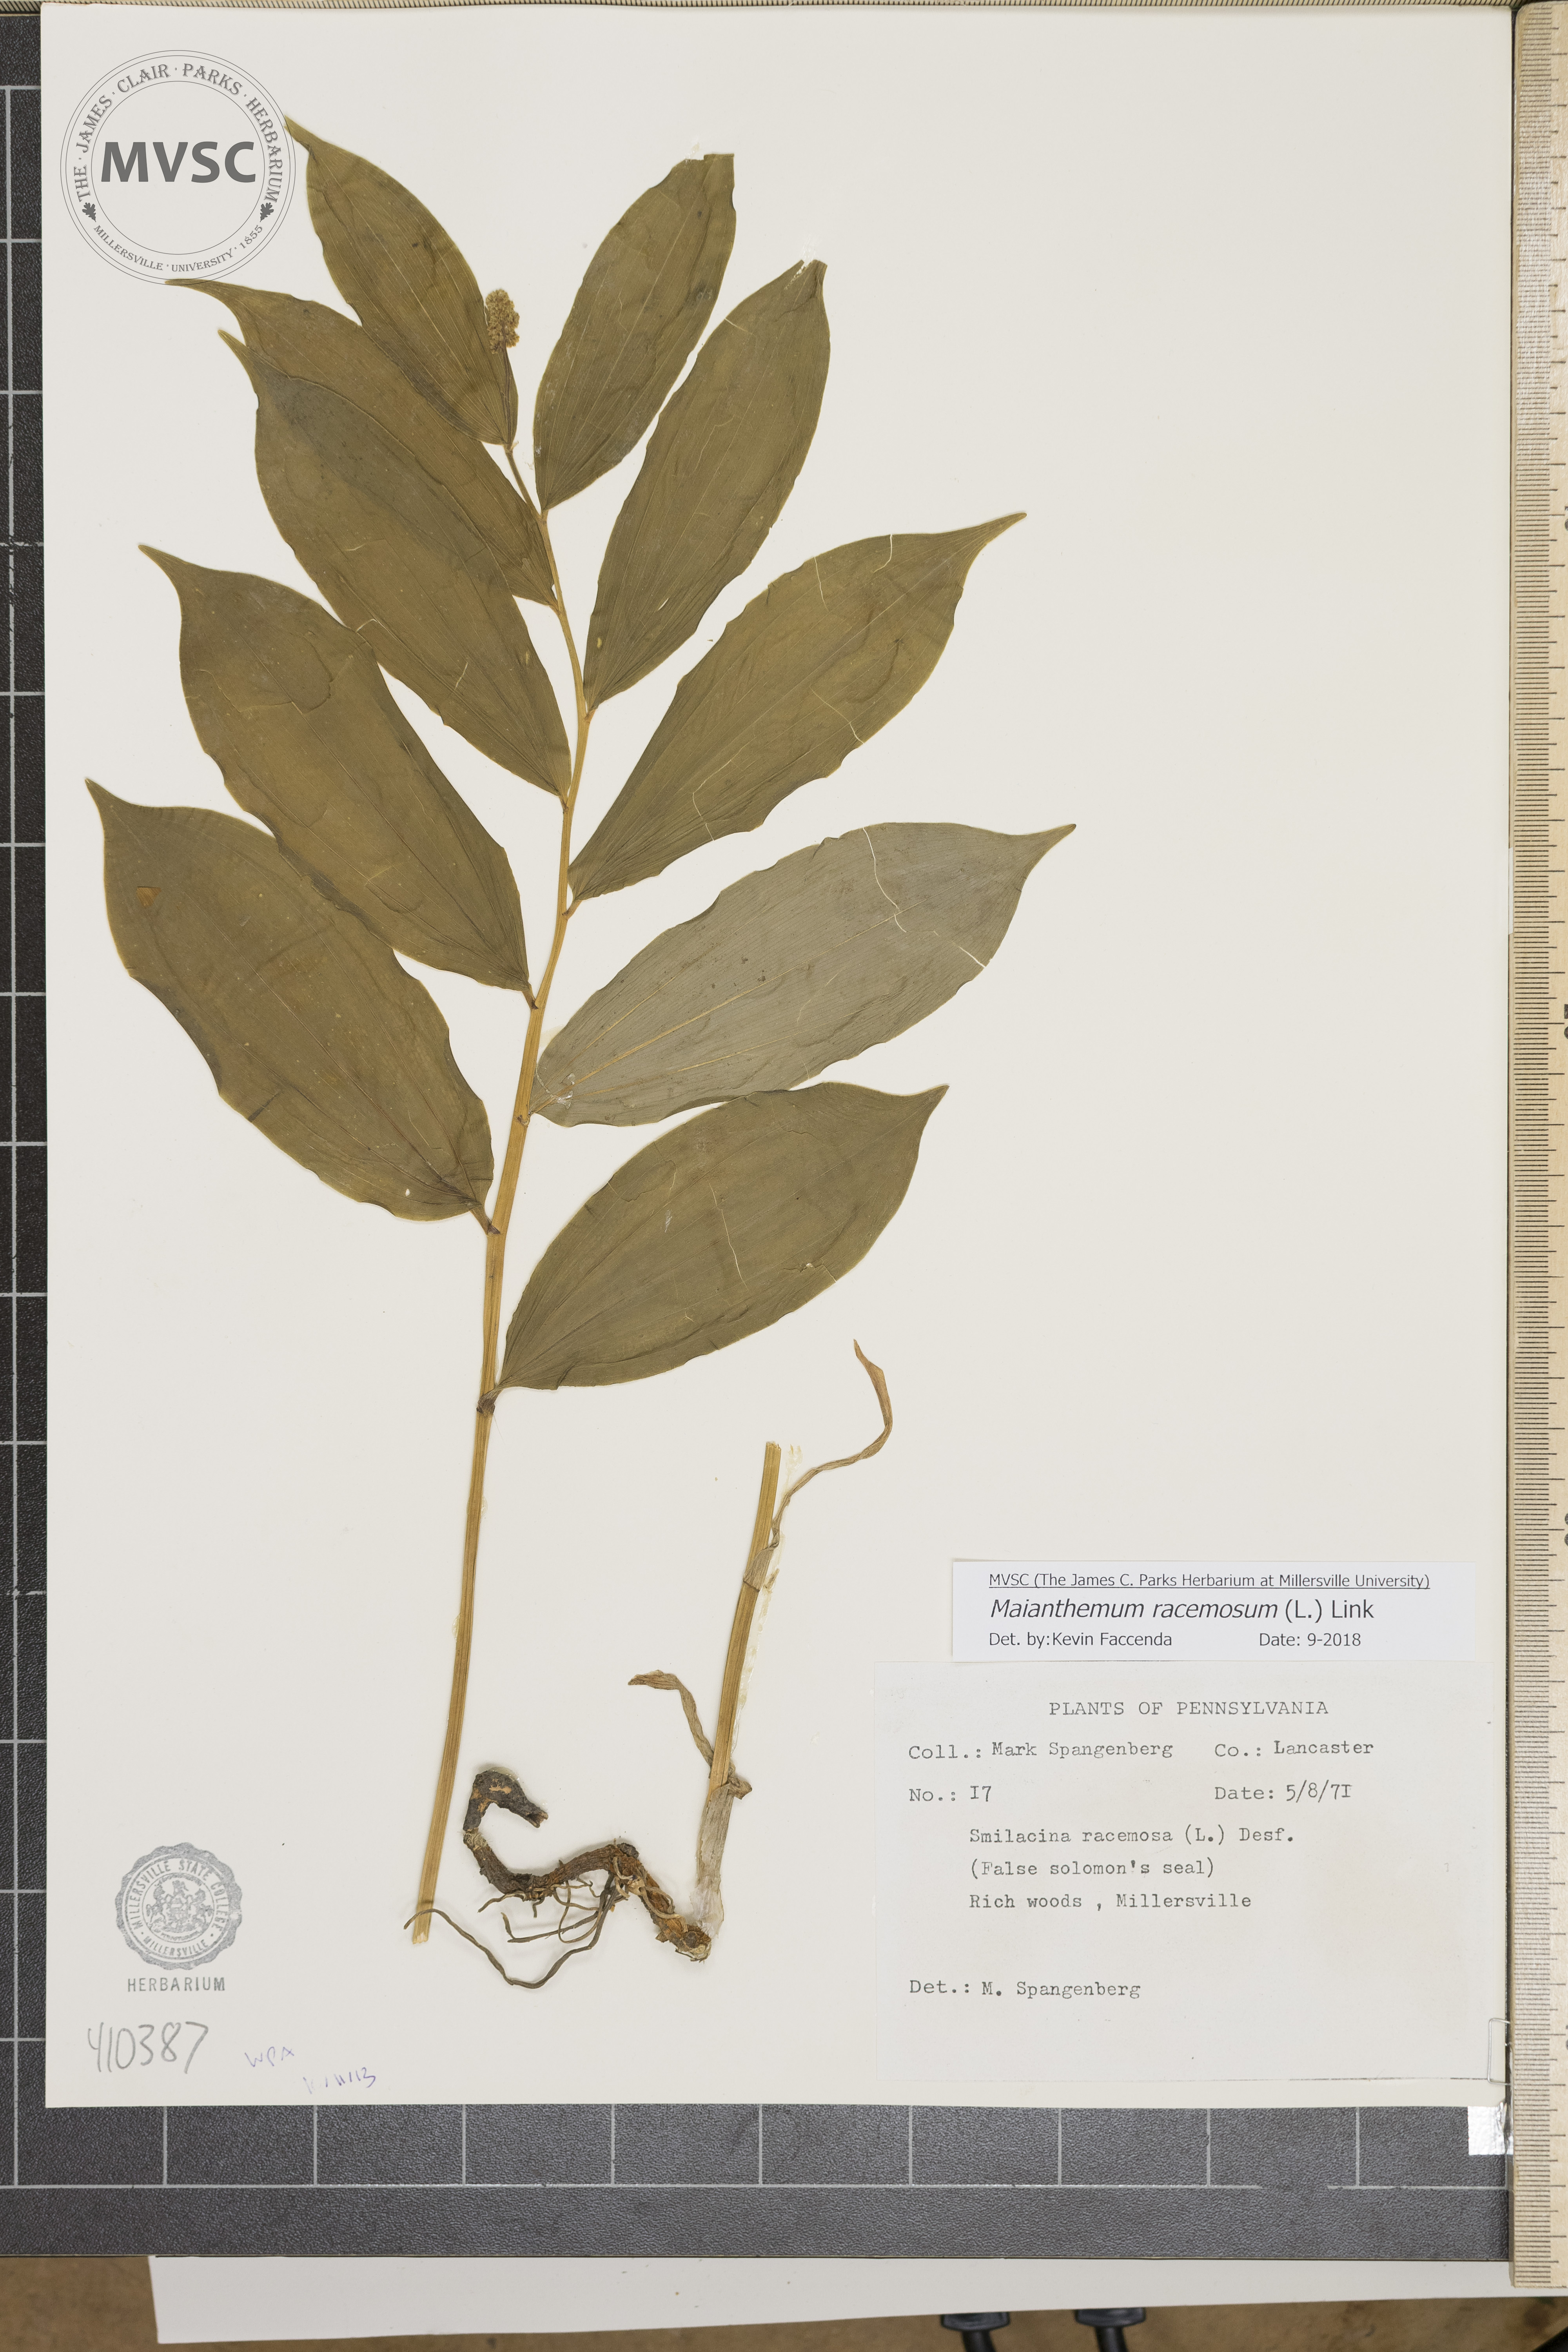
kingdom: Plantae
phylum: Tracheophyta
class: Liliopsida
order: Asparagales
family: Asparagaceae
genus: Maianthemum
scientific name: Maianthemum racemosum
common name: False spikenard
